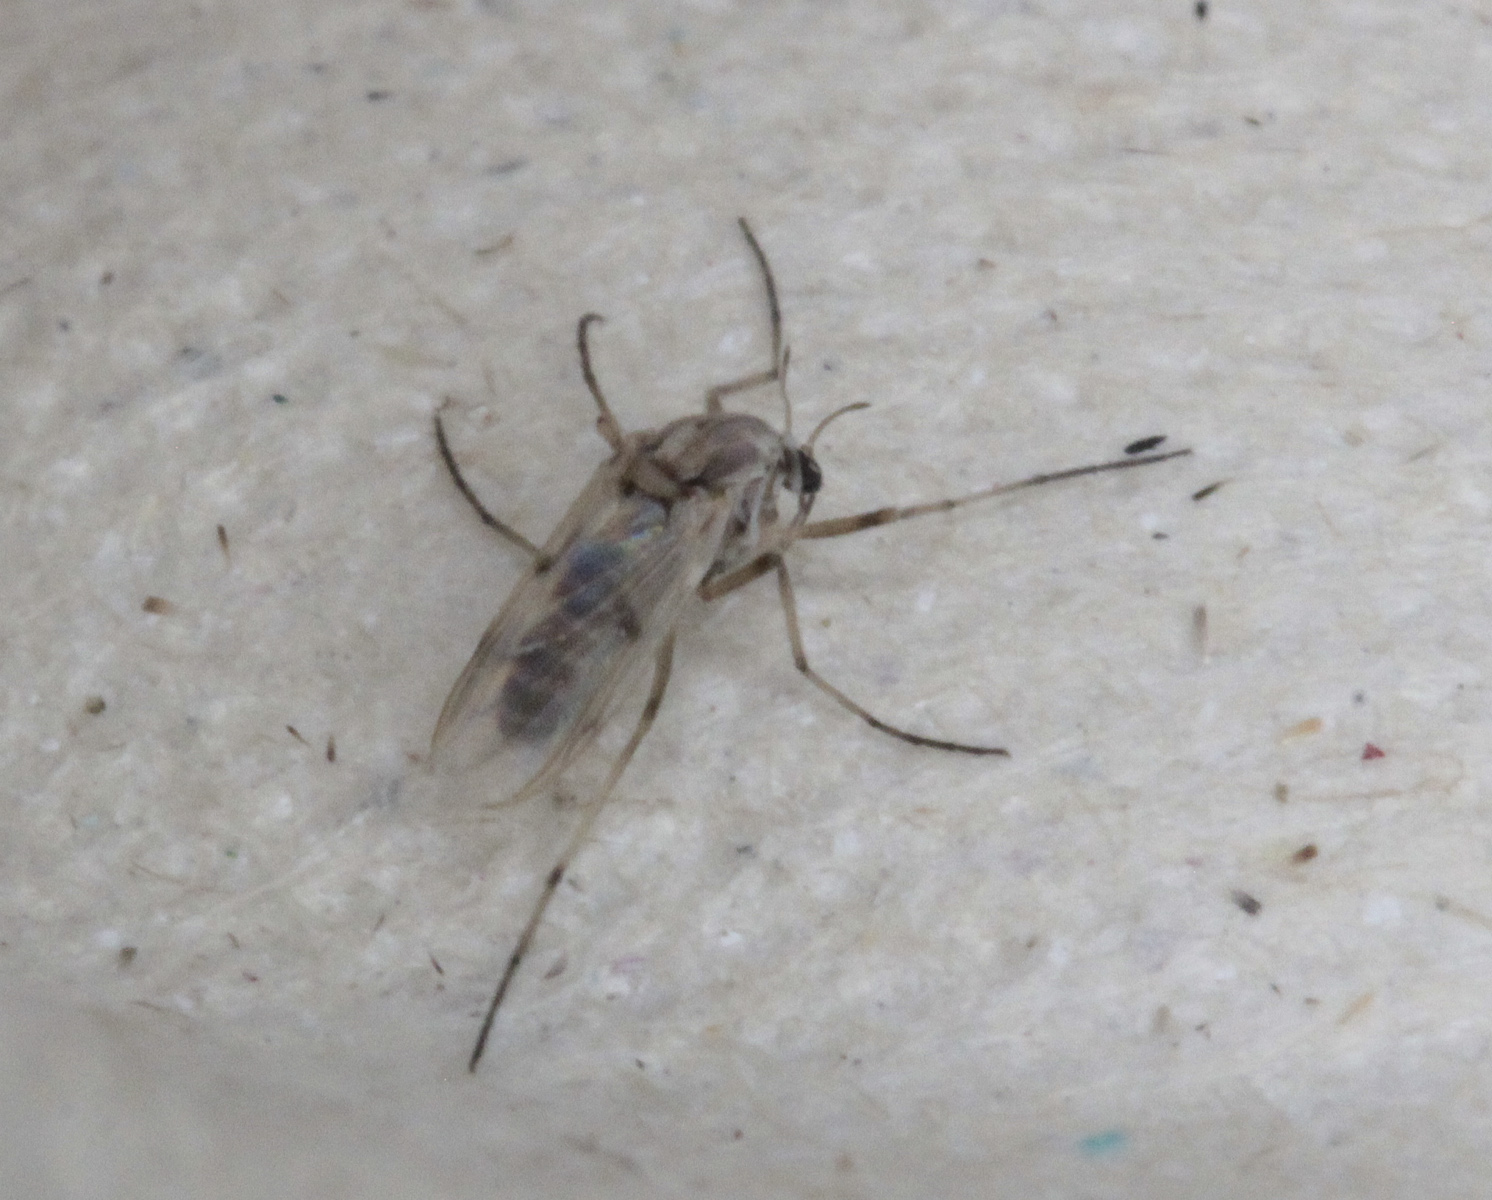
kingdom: Animalia
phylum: Arthropoda
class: Insecta
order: Diptera
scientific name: Diptera
